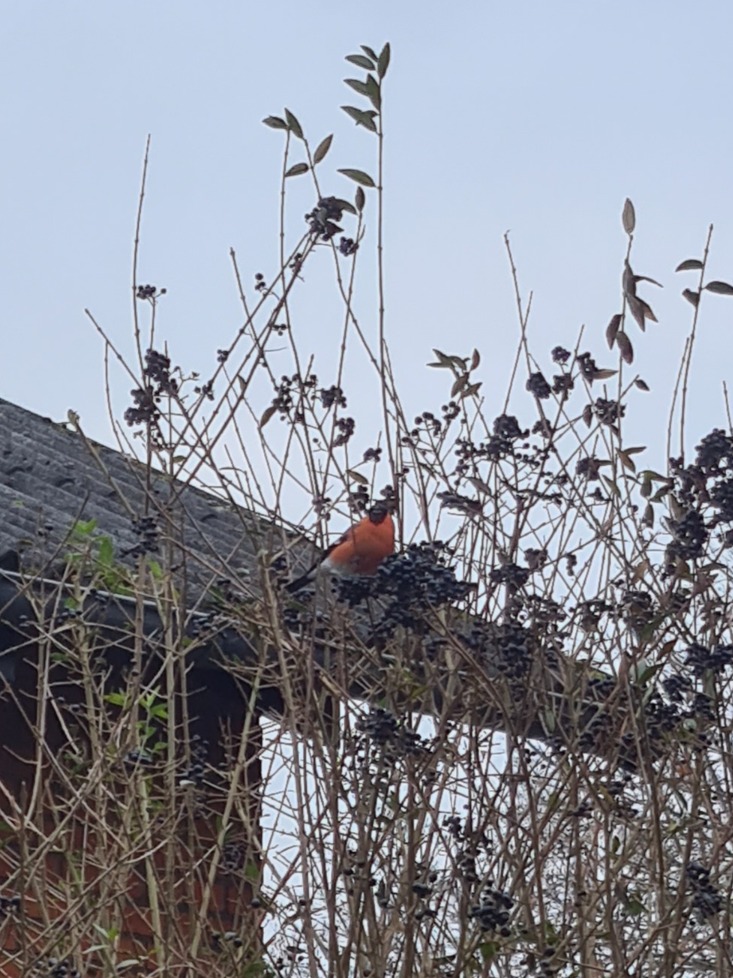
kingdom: Animalia
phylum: Chordata
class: Aves
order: Passeriformes
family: Fringillidae
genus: Pyrrhula
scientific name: Pyrrhula pyrrhula
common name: Dompap
